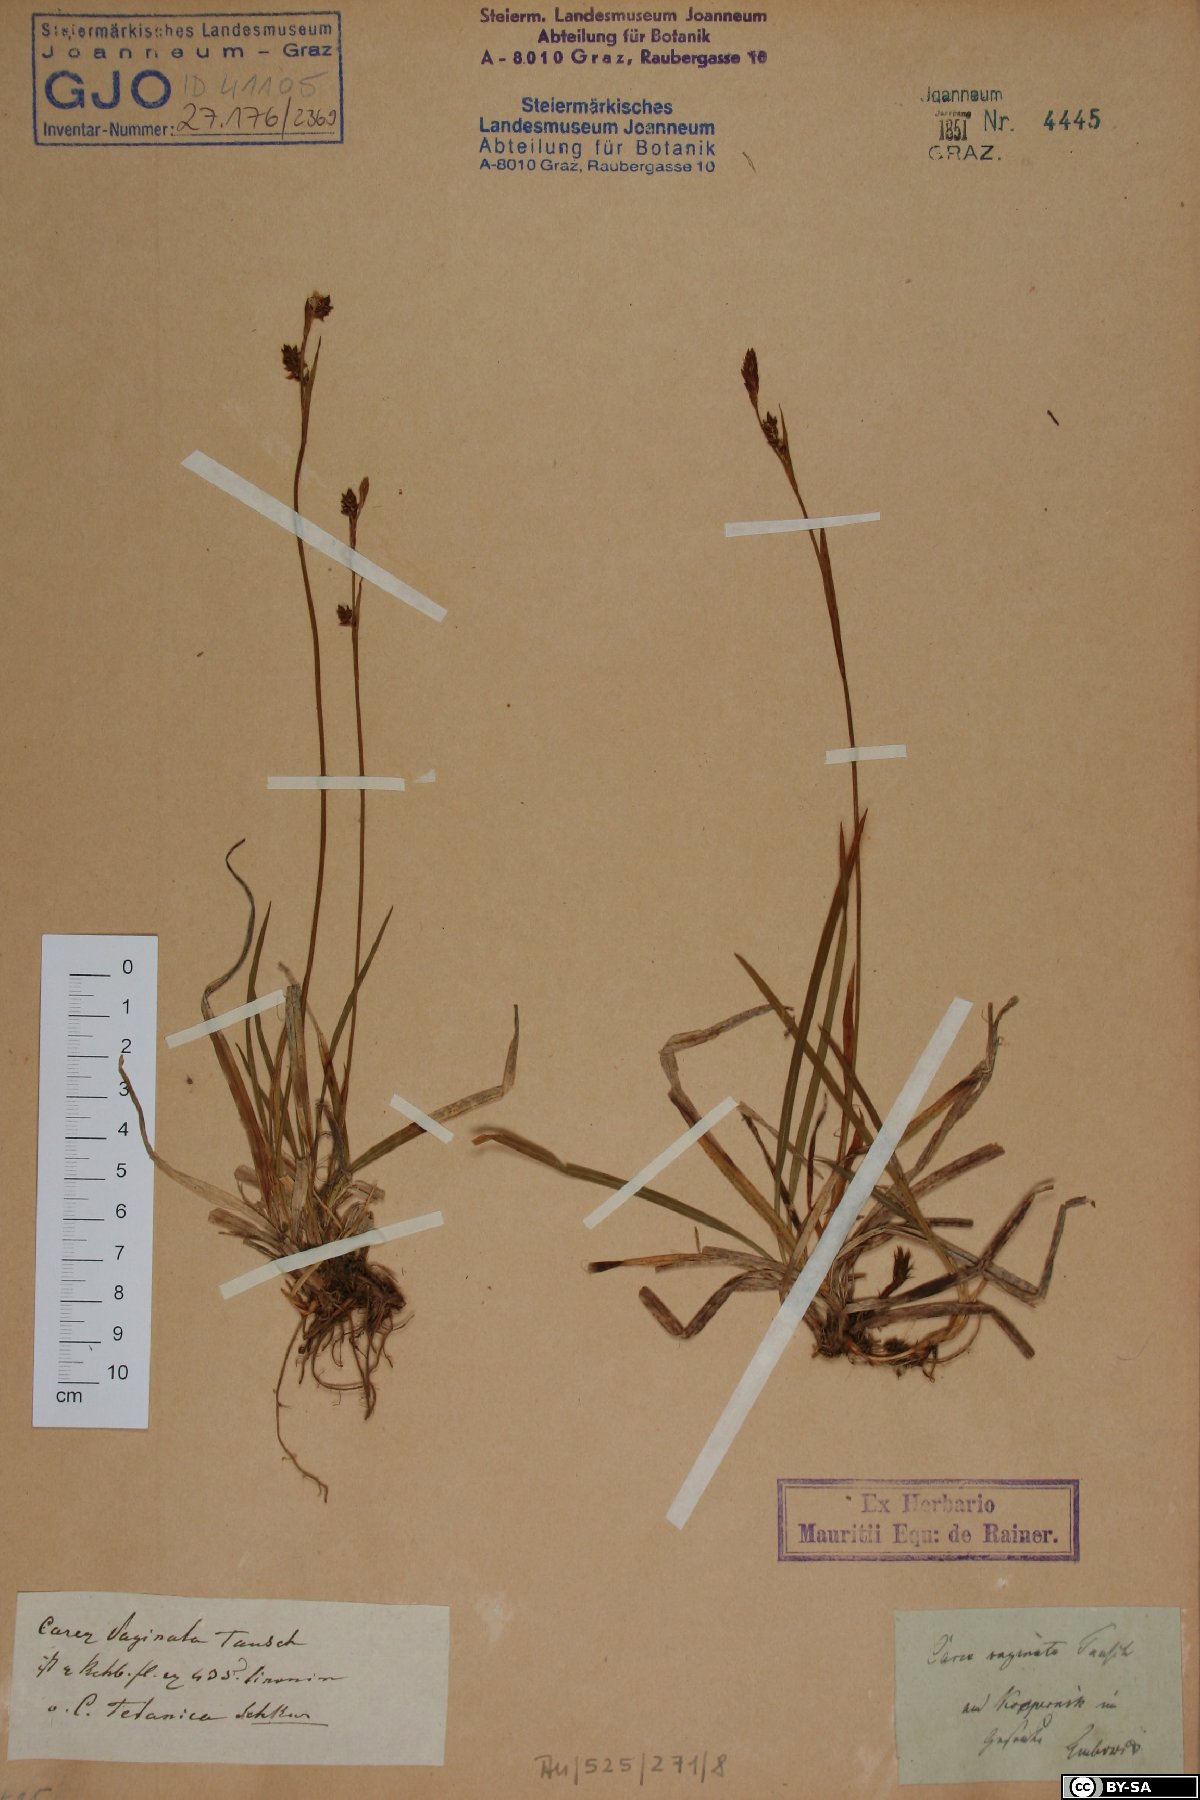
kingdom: Plantae
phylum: Tracheophyta
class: Liliopsida
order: Poales
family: Cyperaceae
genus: Carex
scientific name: Carex vaginata
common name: Sheathed sedge
